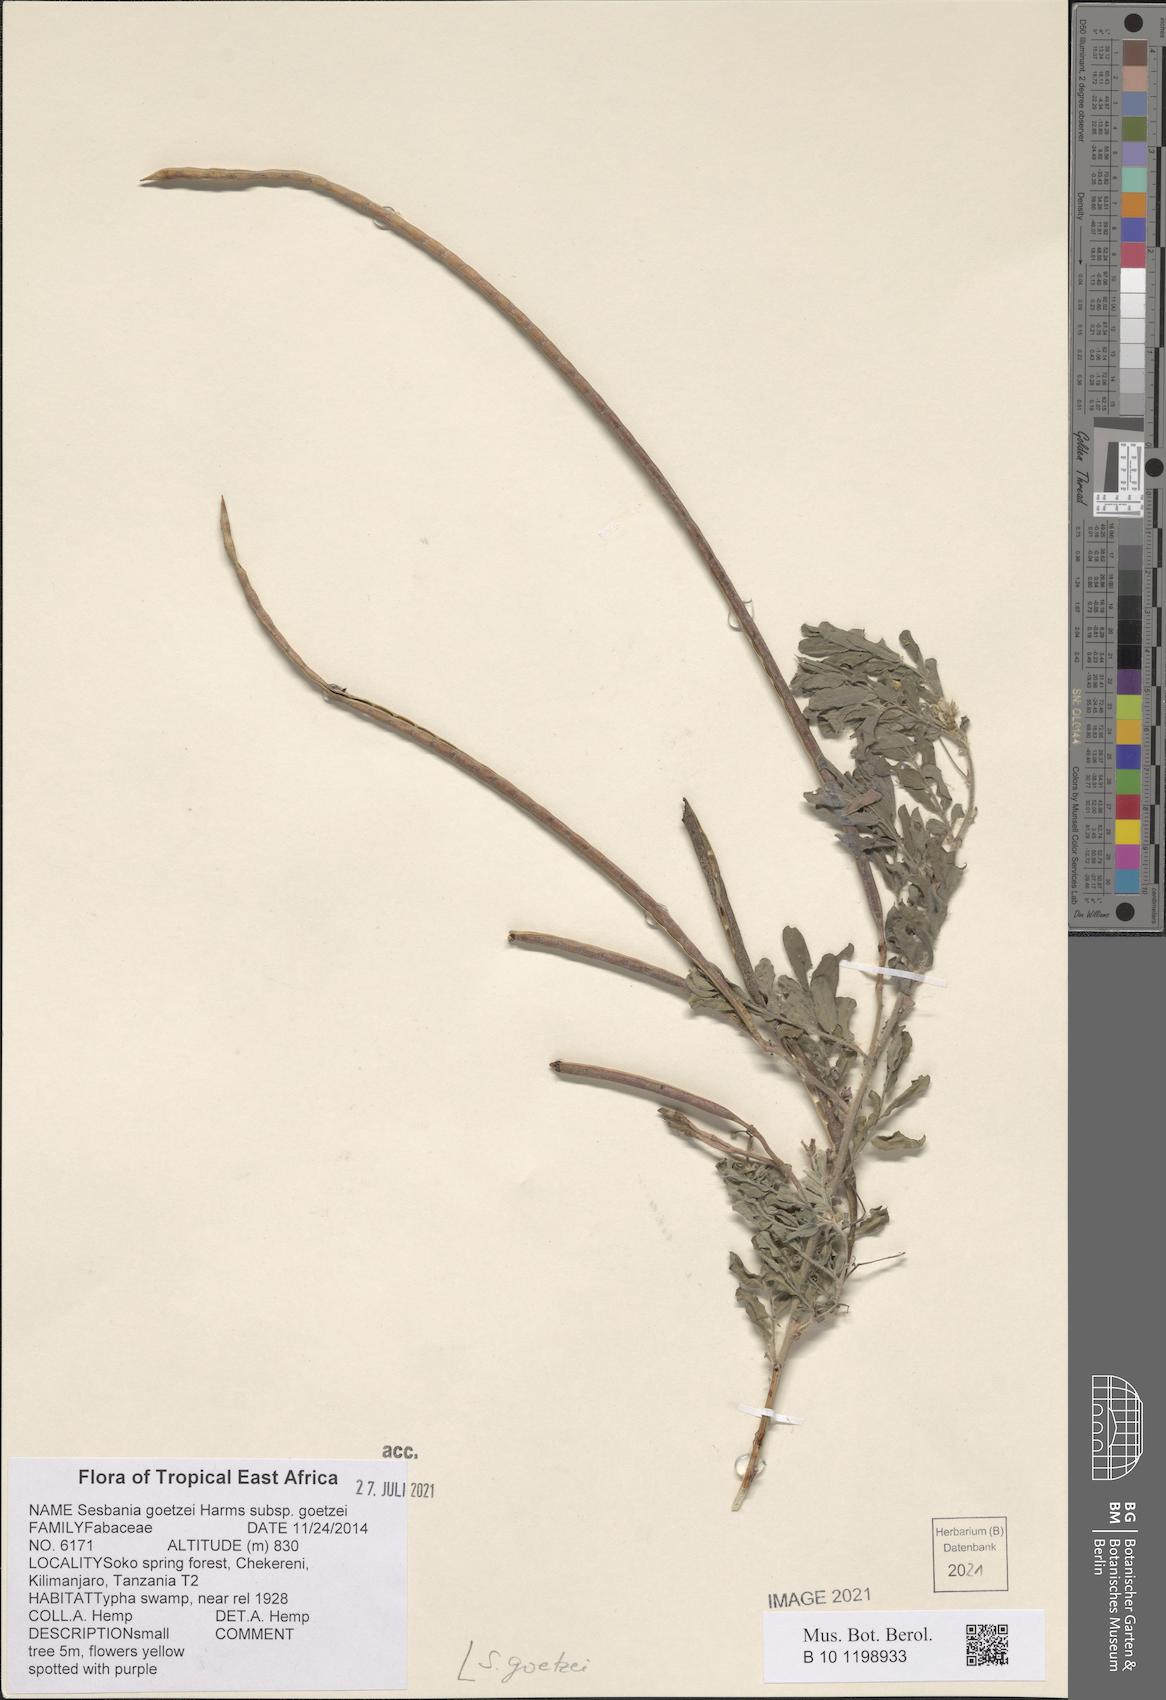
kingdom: Plantae
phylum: Tracheophyta
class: Magnoliopsida
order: Fabales
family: Fabaceae
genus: Sesbania
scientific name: Sesbania goetzei
